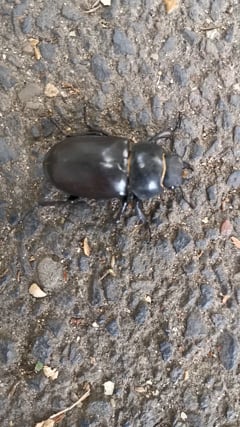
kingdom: Animalia
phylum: Arthropoda
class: Insecta
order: Coleoptera
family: Lucanidae
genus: Lucanus
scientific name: Lucanus cervus
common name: Stag beetle
